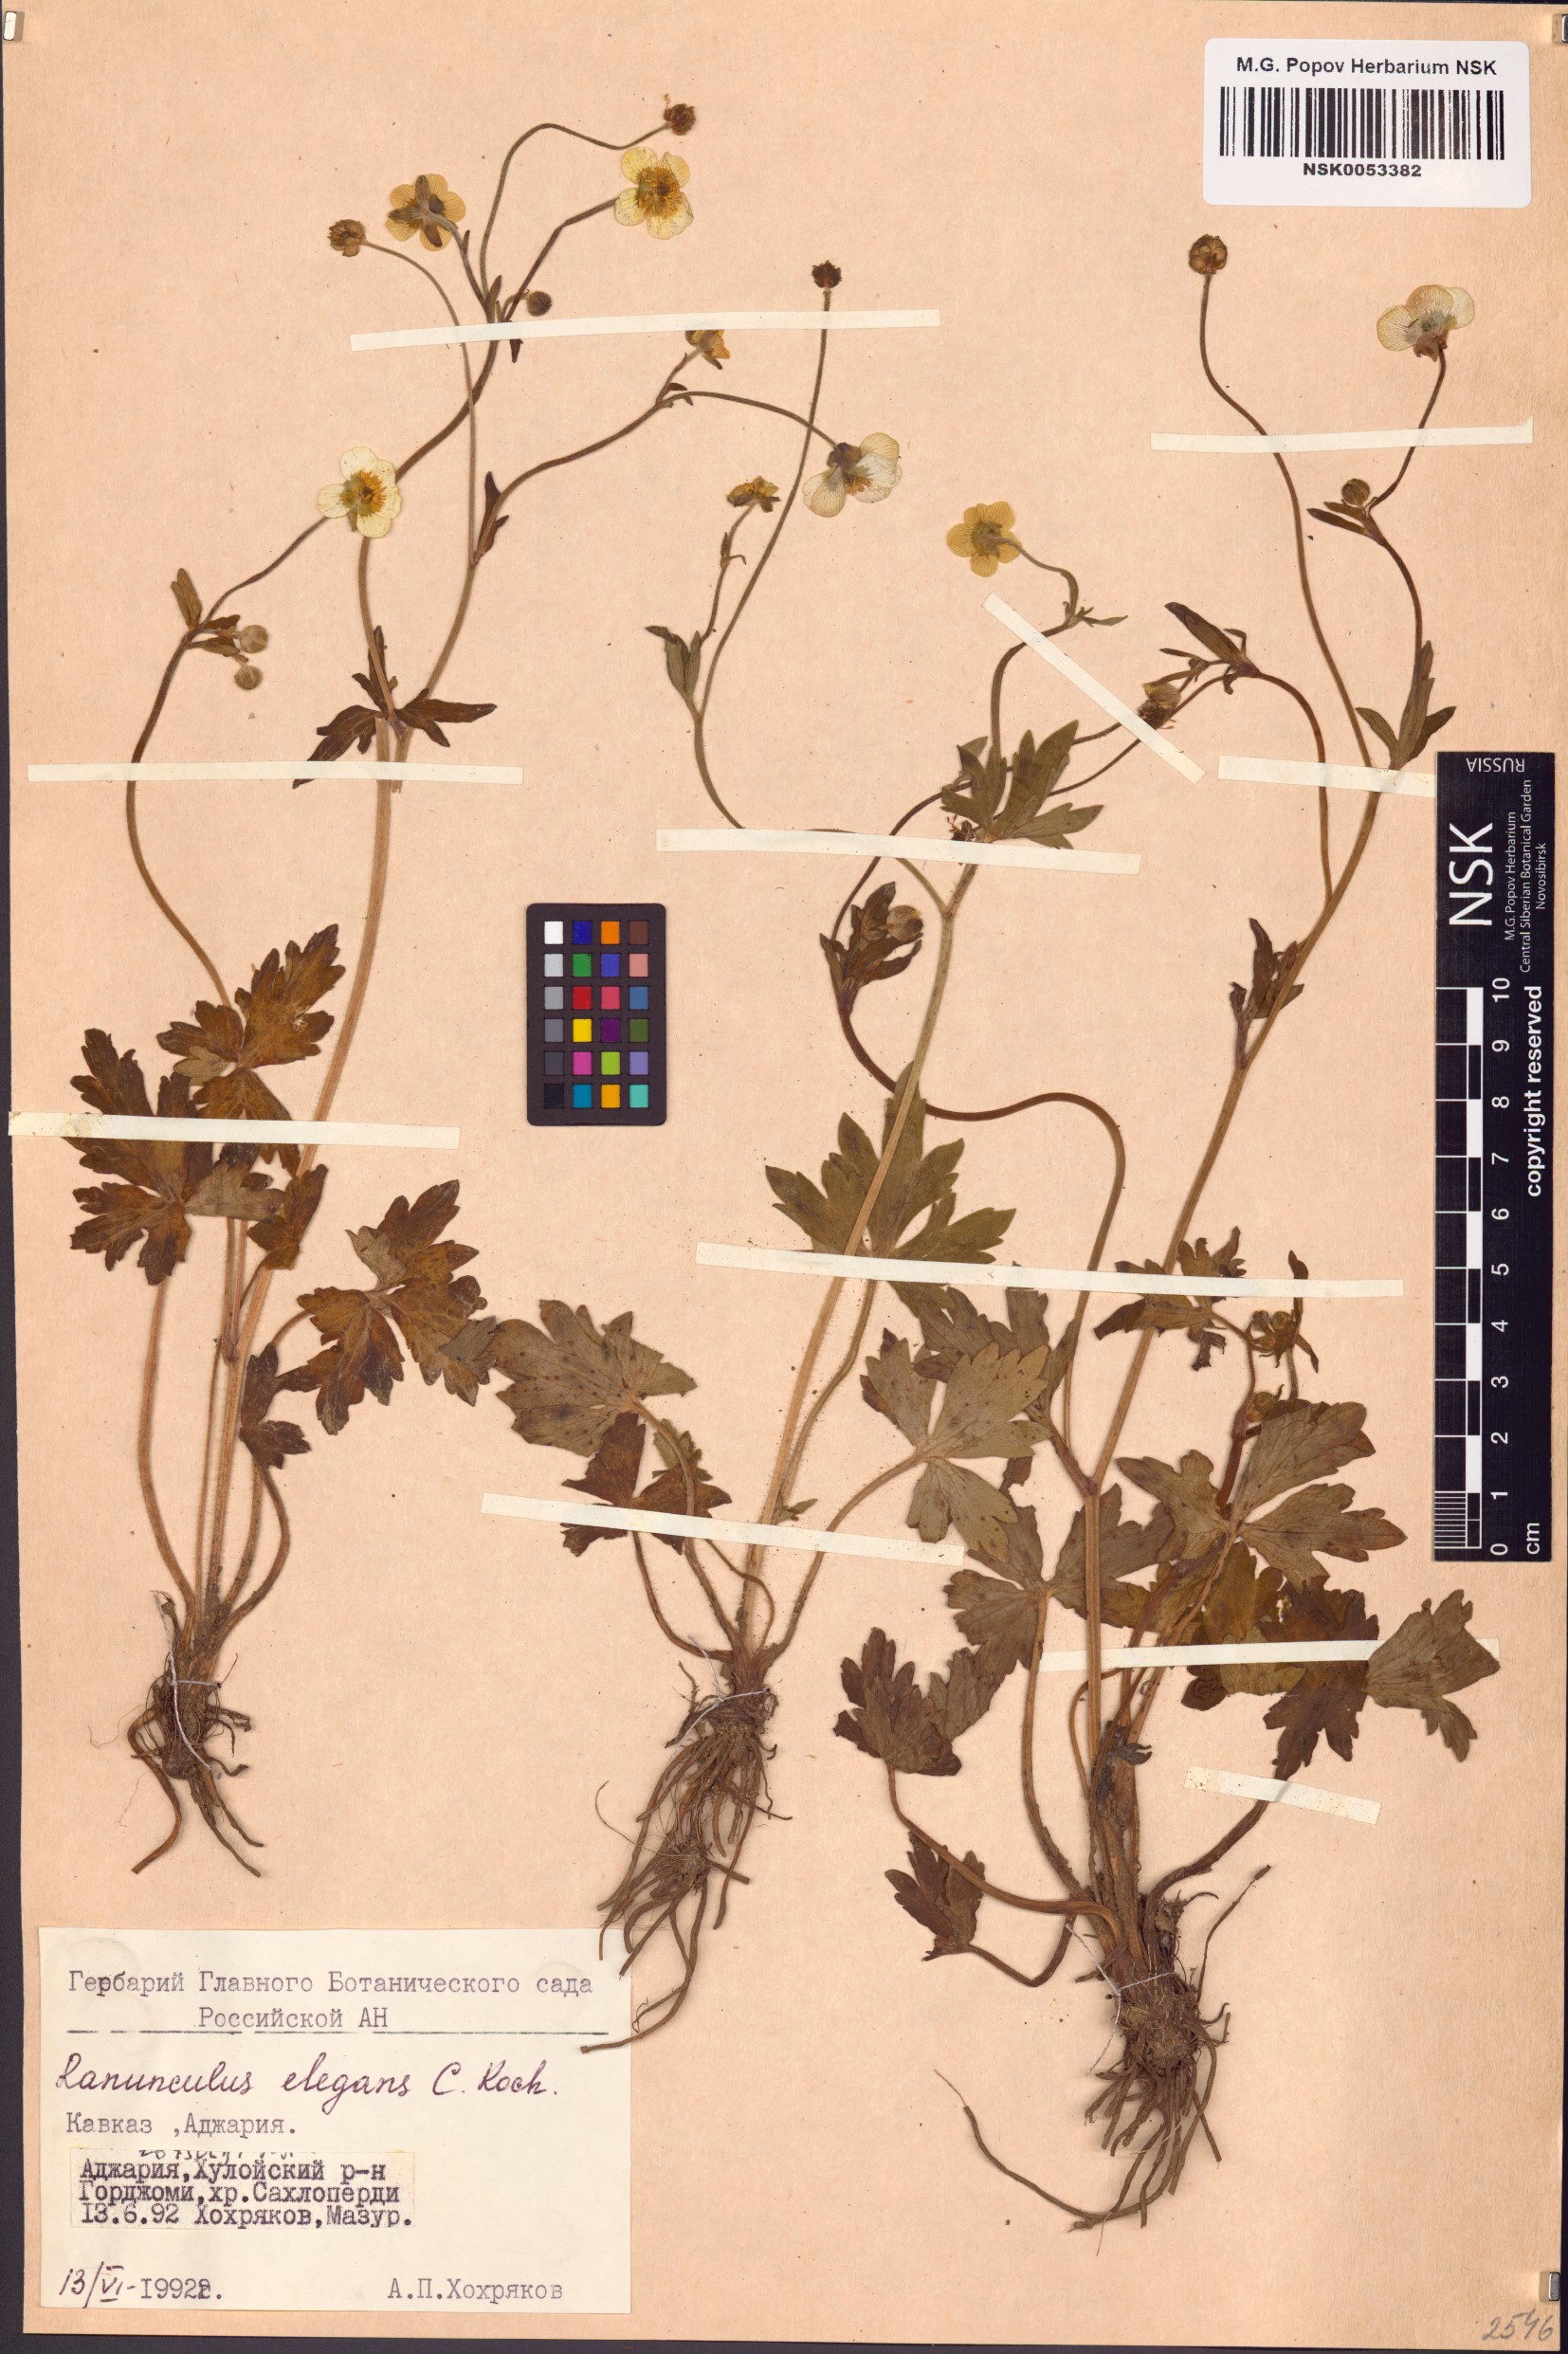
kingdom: Plantae
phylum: Tracheophyta
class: Magnoliopsida
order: Ranunculales
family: Ranunculaceae
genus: Ranunculus
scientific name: Ranunculus elegans
